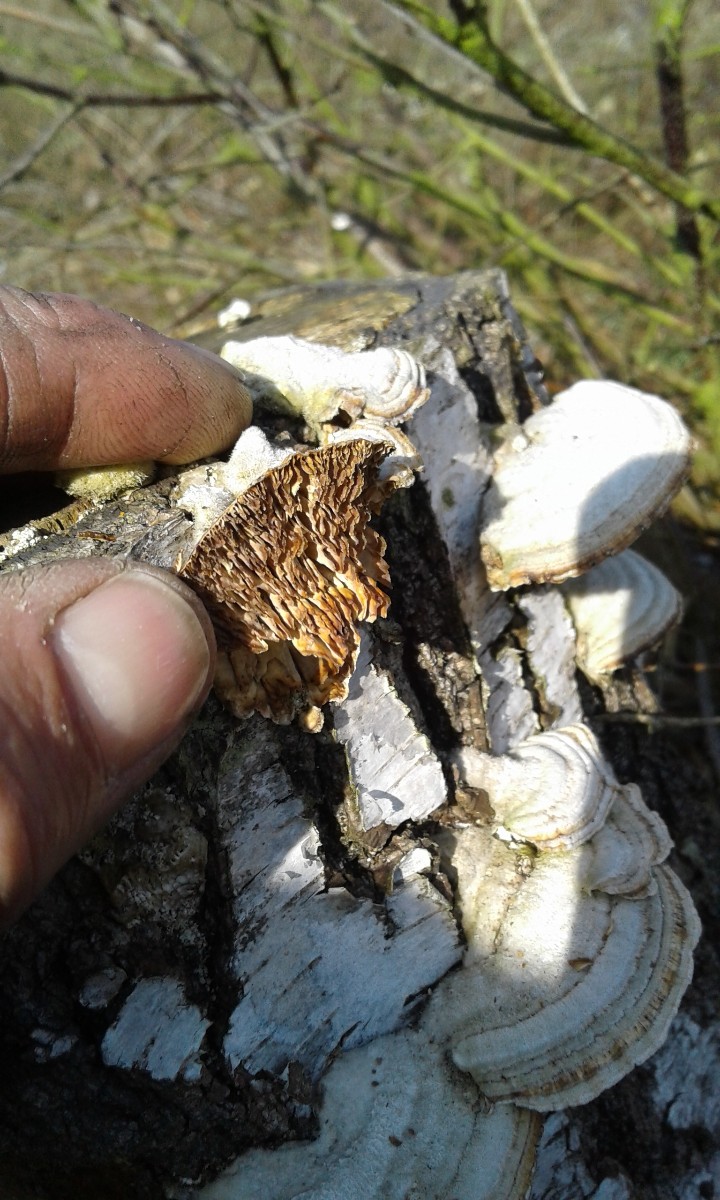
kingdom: Fungi
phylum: Basidiomycota
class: Agaricomycetes
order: Polyporales
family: Polyporaceae
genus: Lenzites
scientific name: Lenzites betulinus
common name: birke-læderporesvamp
